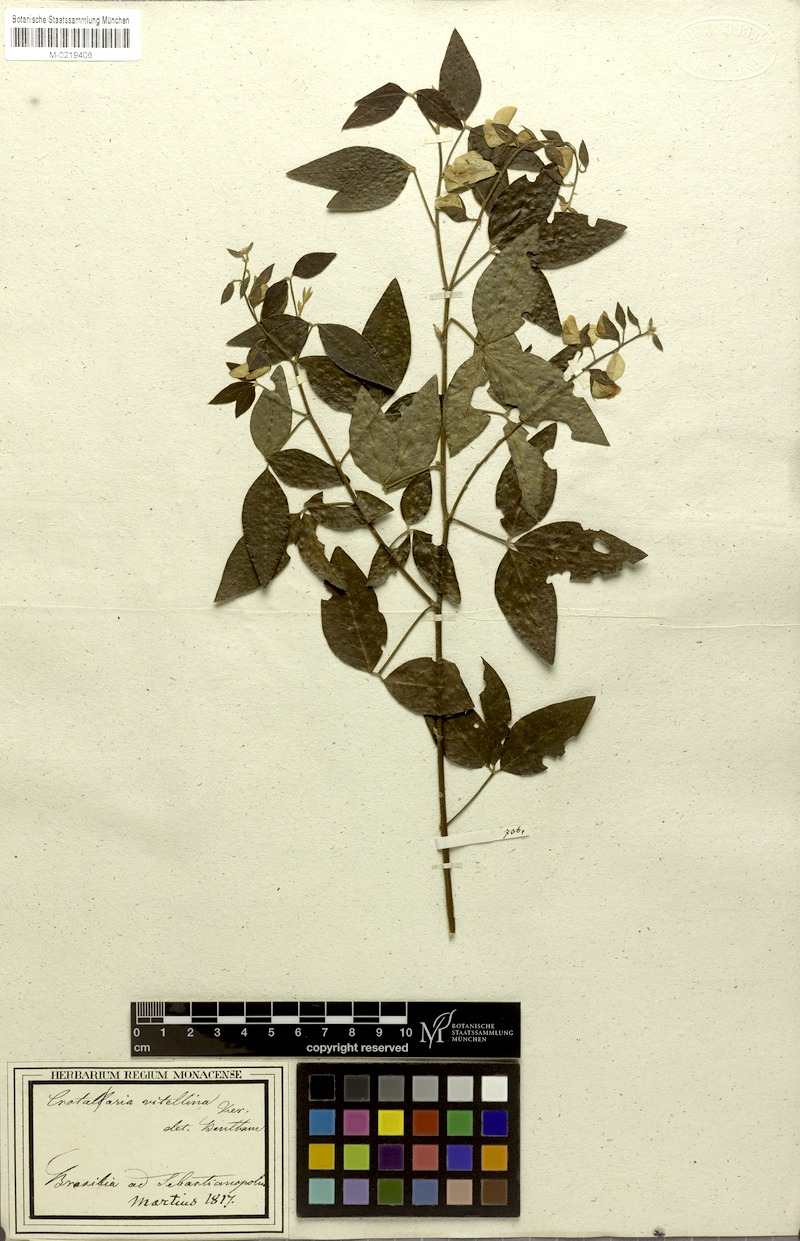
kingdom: Plantae
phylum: Tracheophyta
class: Magnoliopsida
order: Fabales
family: Fabaceae
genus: Crotalaria
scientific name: Crotalaria vitellina
